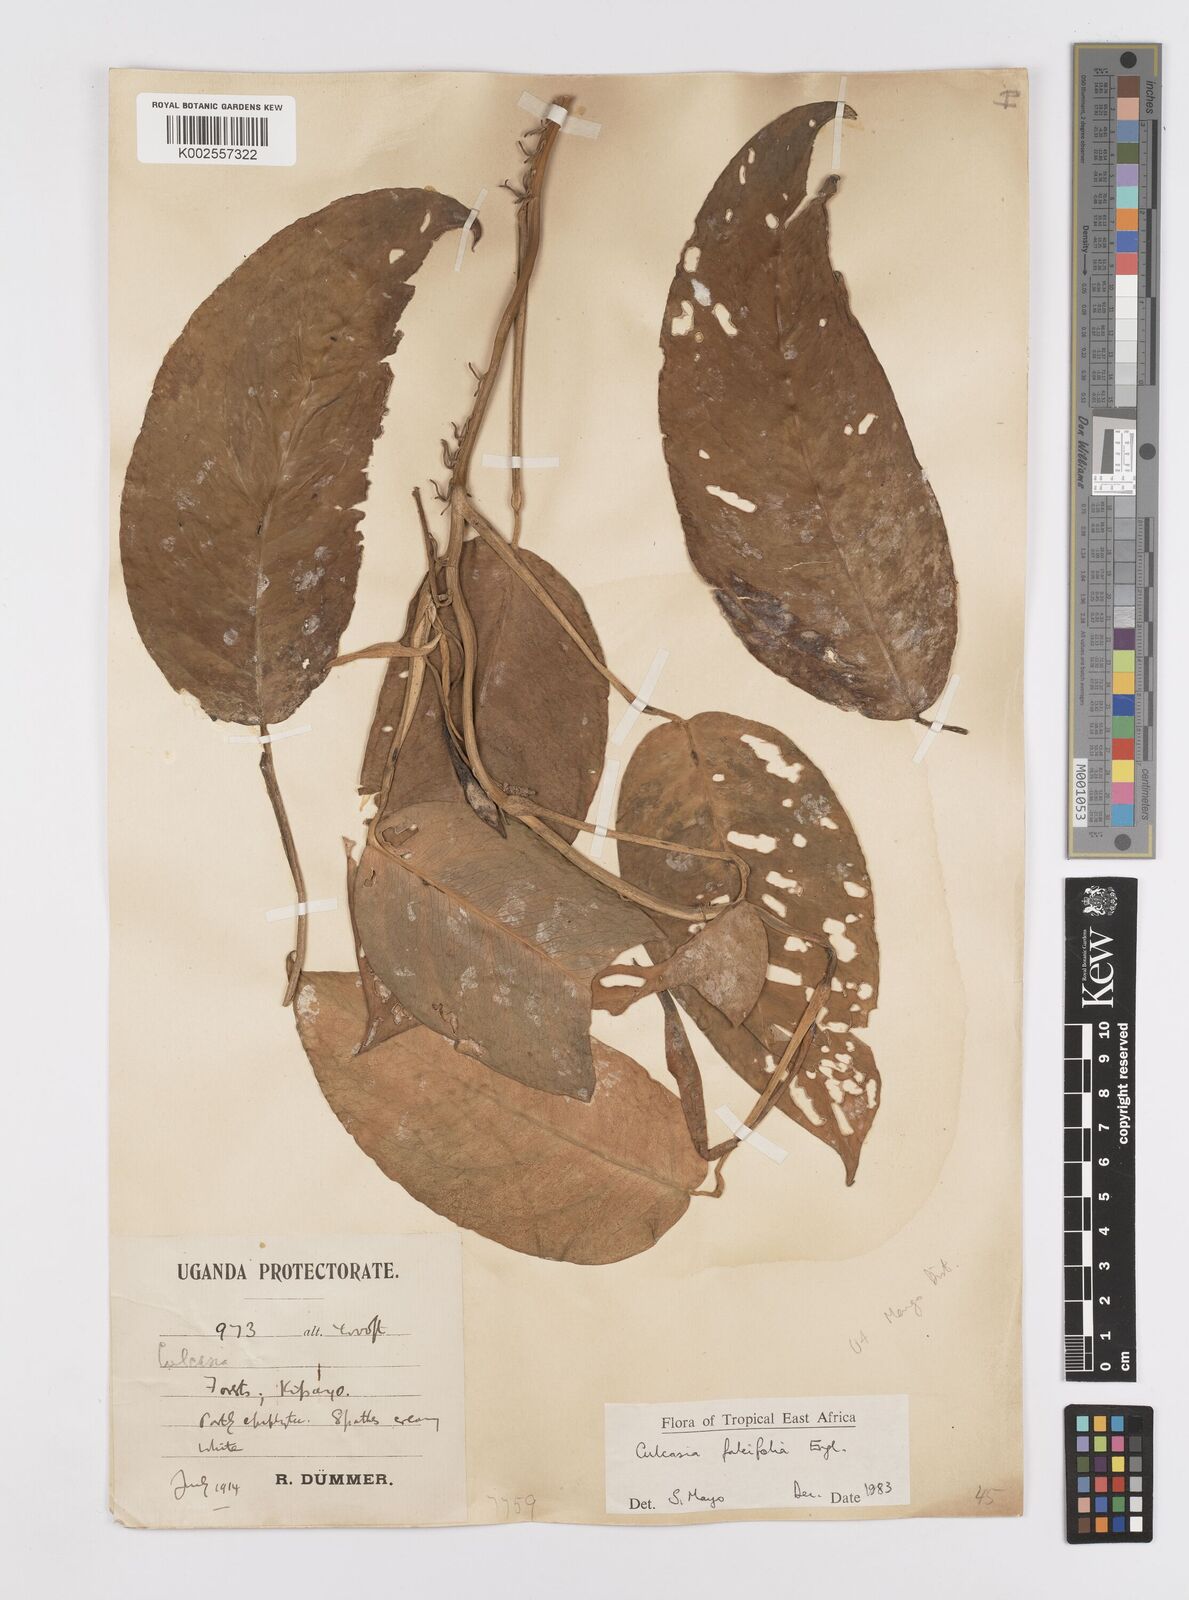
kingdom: Plantae
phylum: Tracheophyta
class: Liliopsida
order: Alismatales
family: Araceae
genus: Culcasia
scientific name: Culcasia falcifolia
